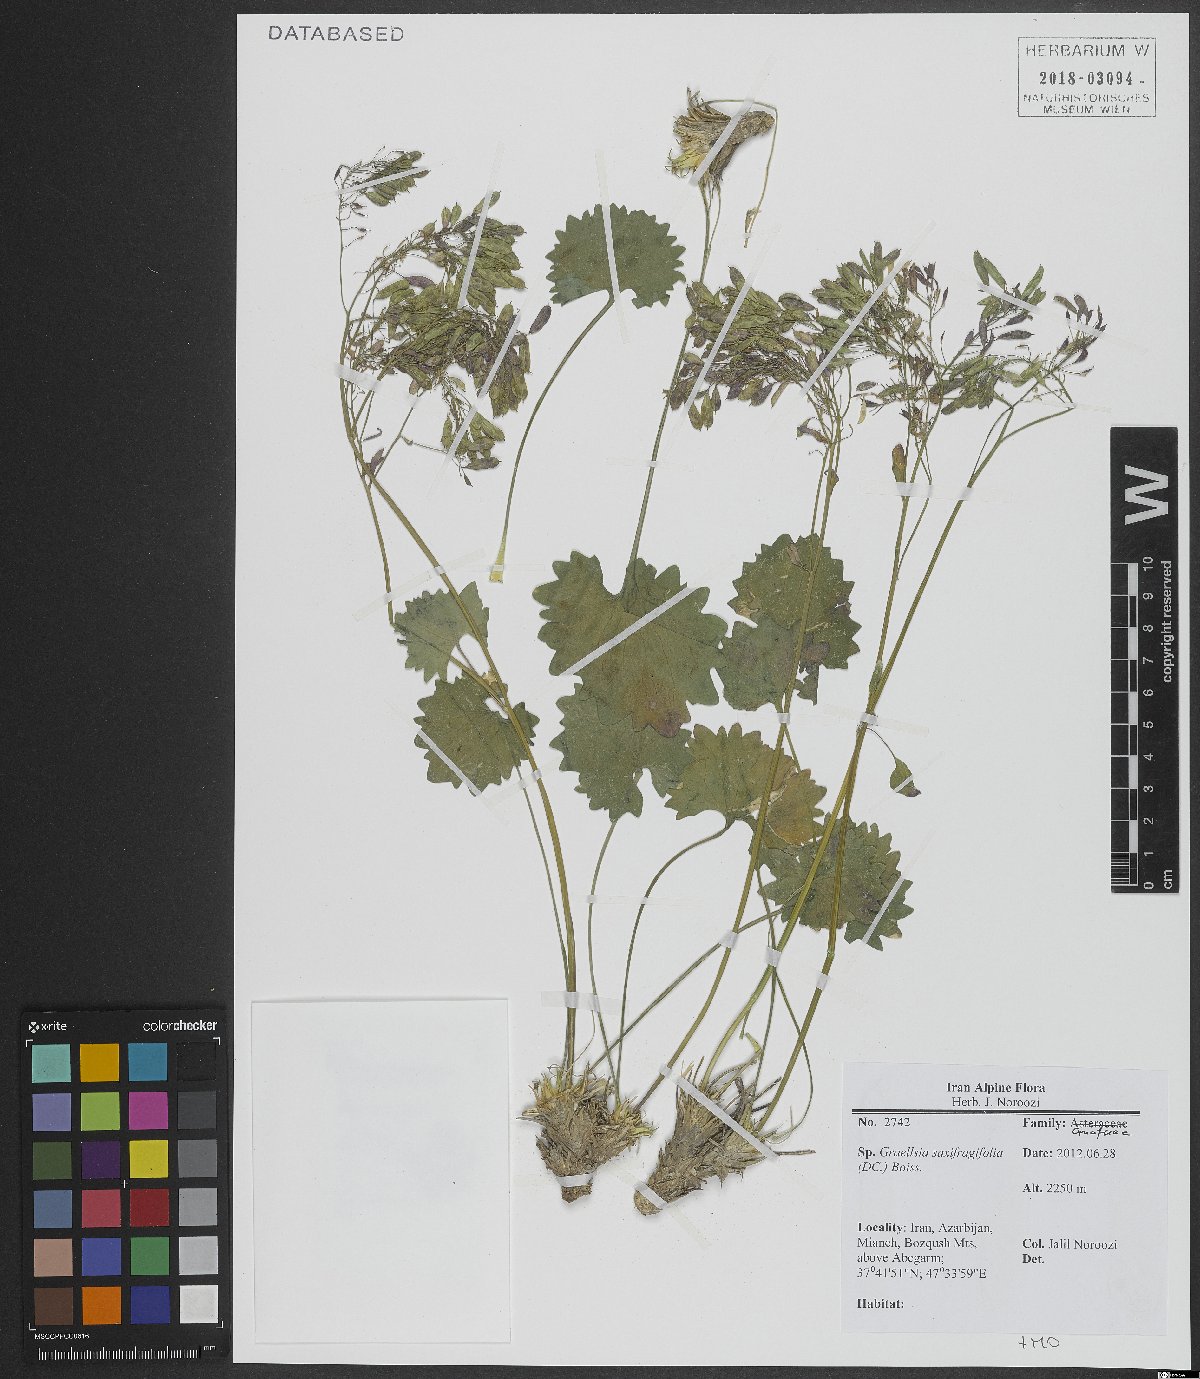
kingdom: Plantae
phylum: Tracheophyta
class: Magnoliopsida
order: Brassicales
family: Brassicaceae
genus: Graellsia
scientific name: Graellsia saxifragifolia
